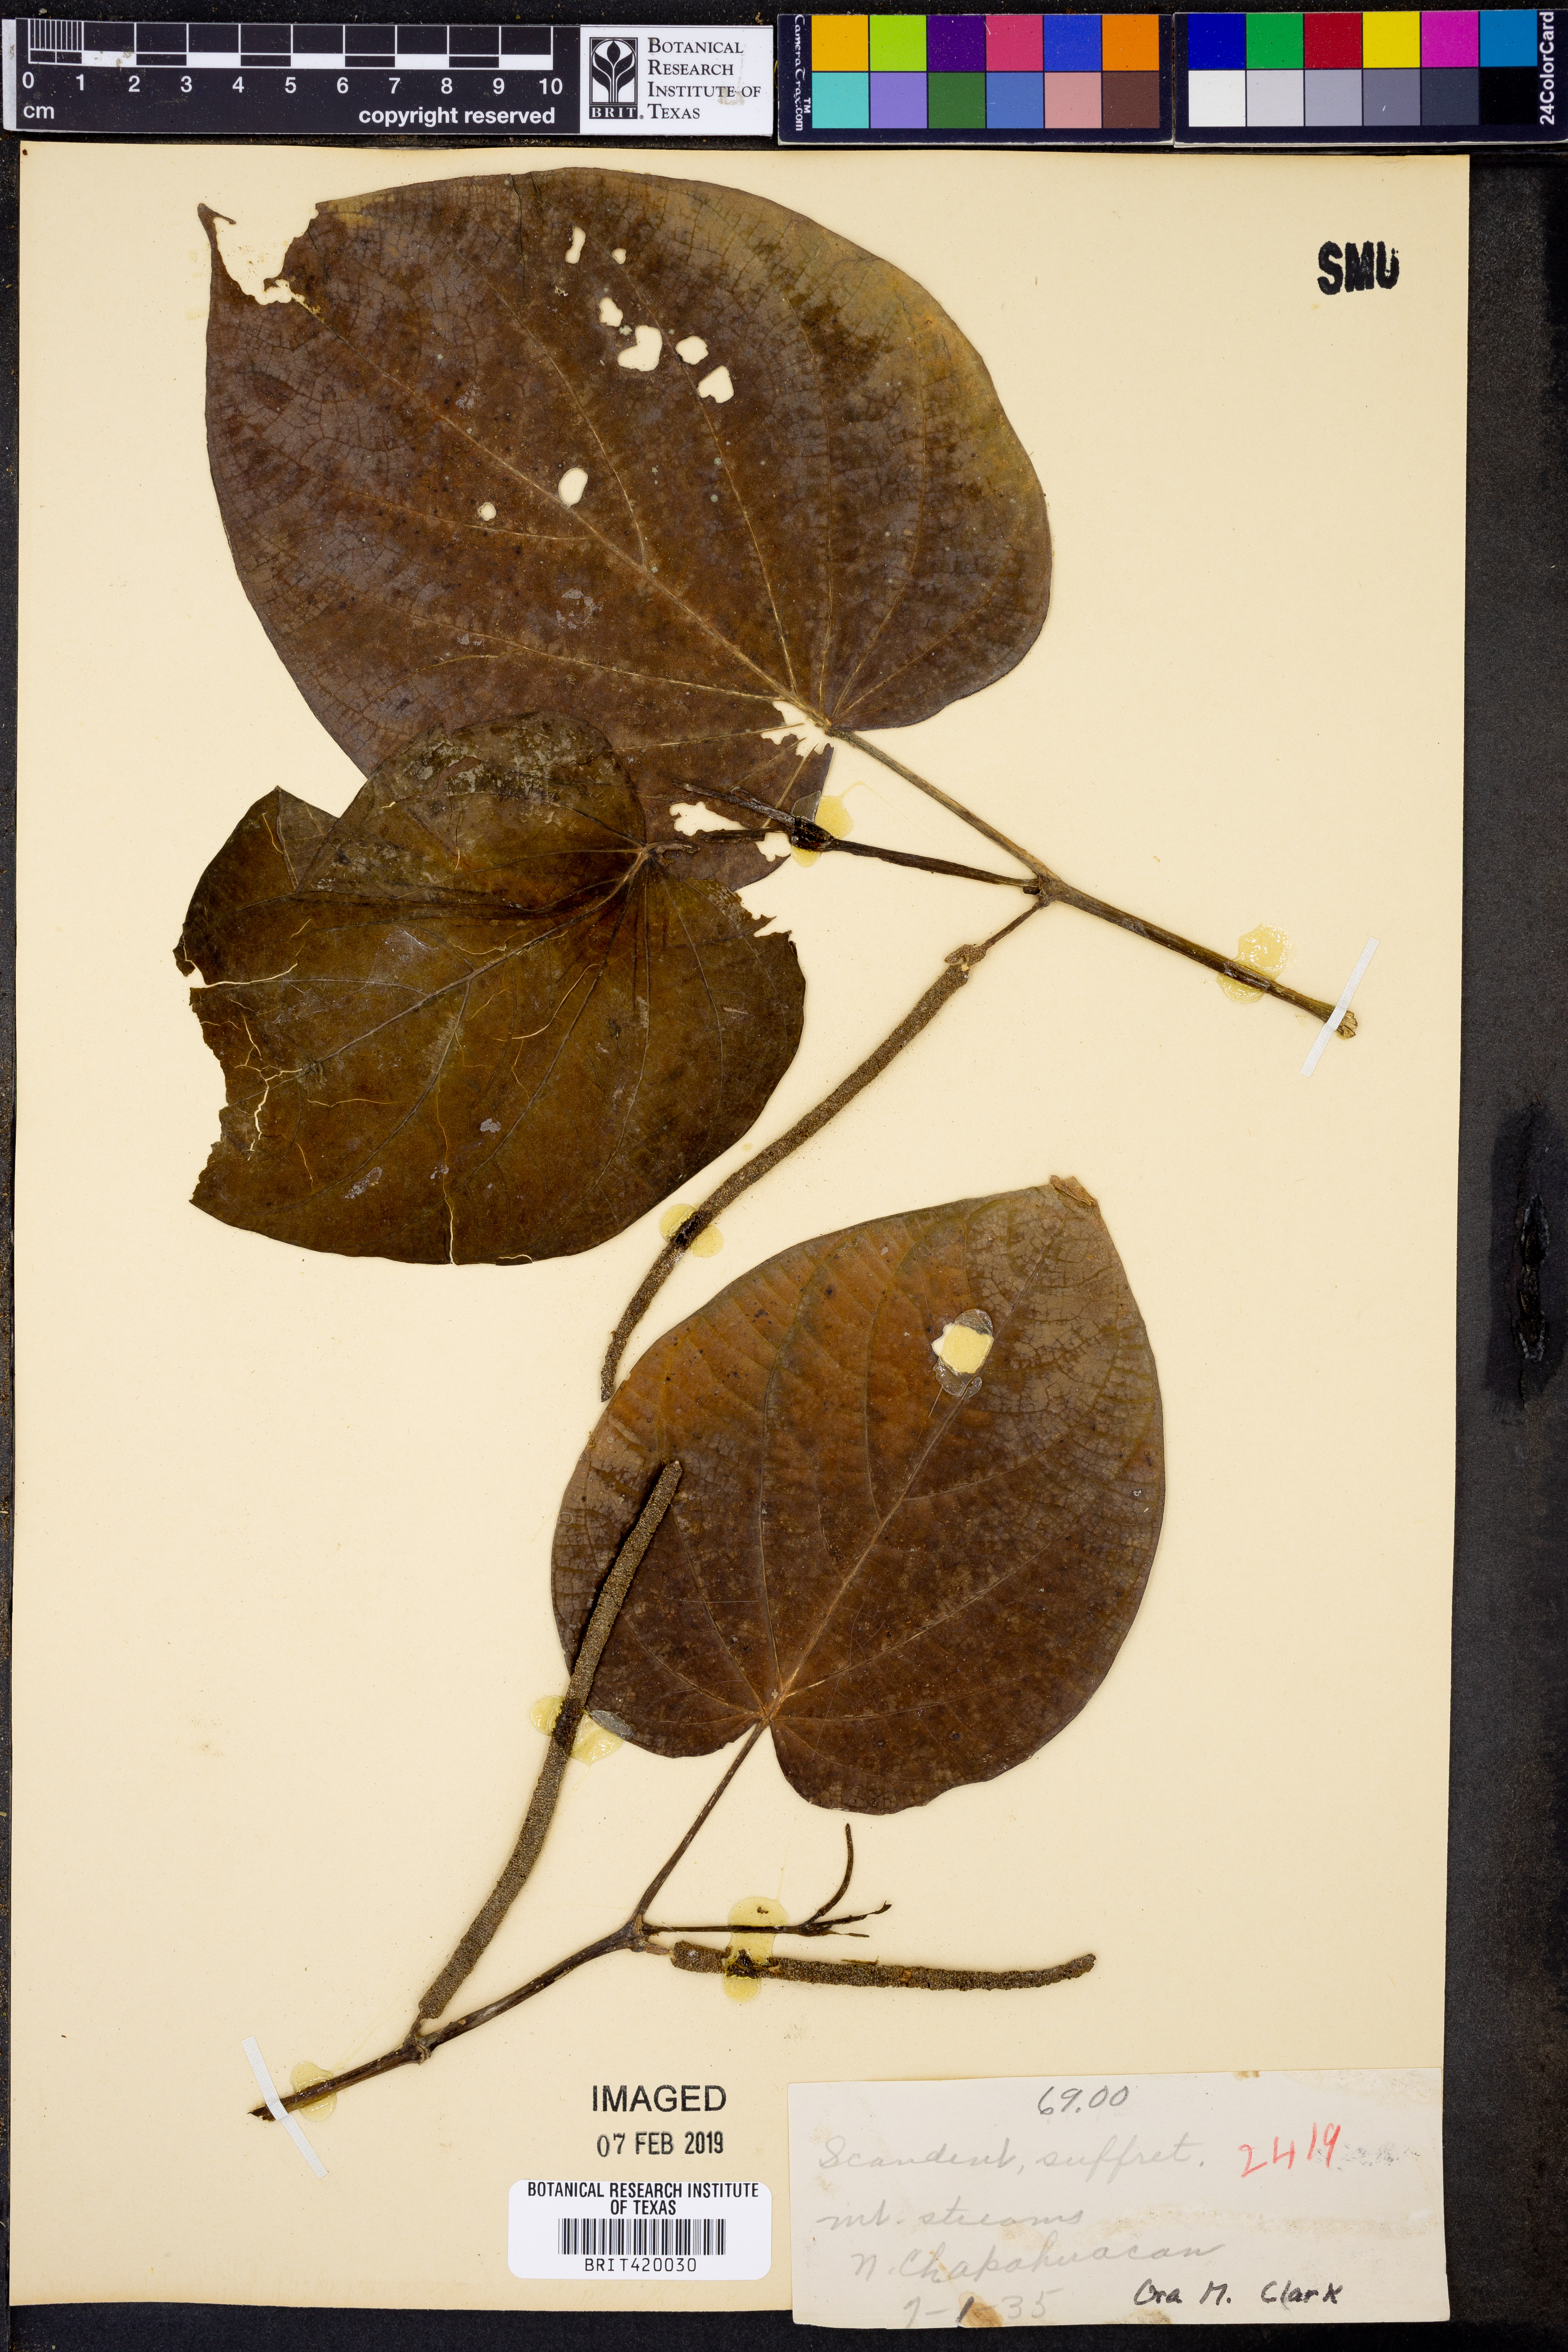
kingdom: Plantae
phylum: Tracheophyta
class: Magnoliopsida
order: Piperales
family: Piperaceae
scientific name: Piperaceae
